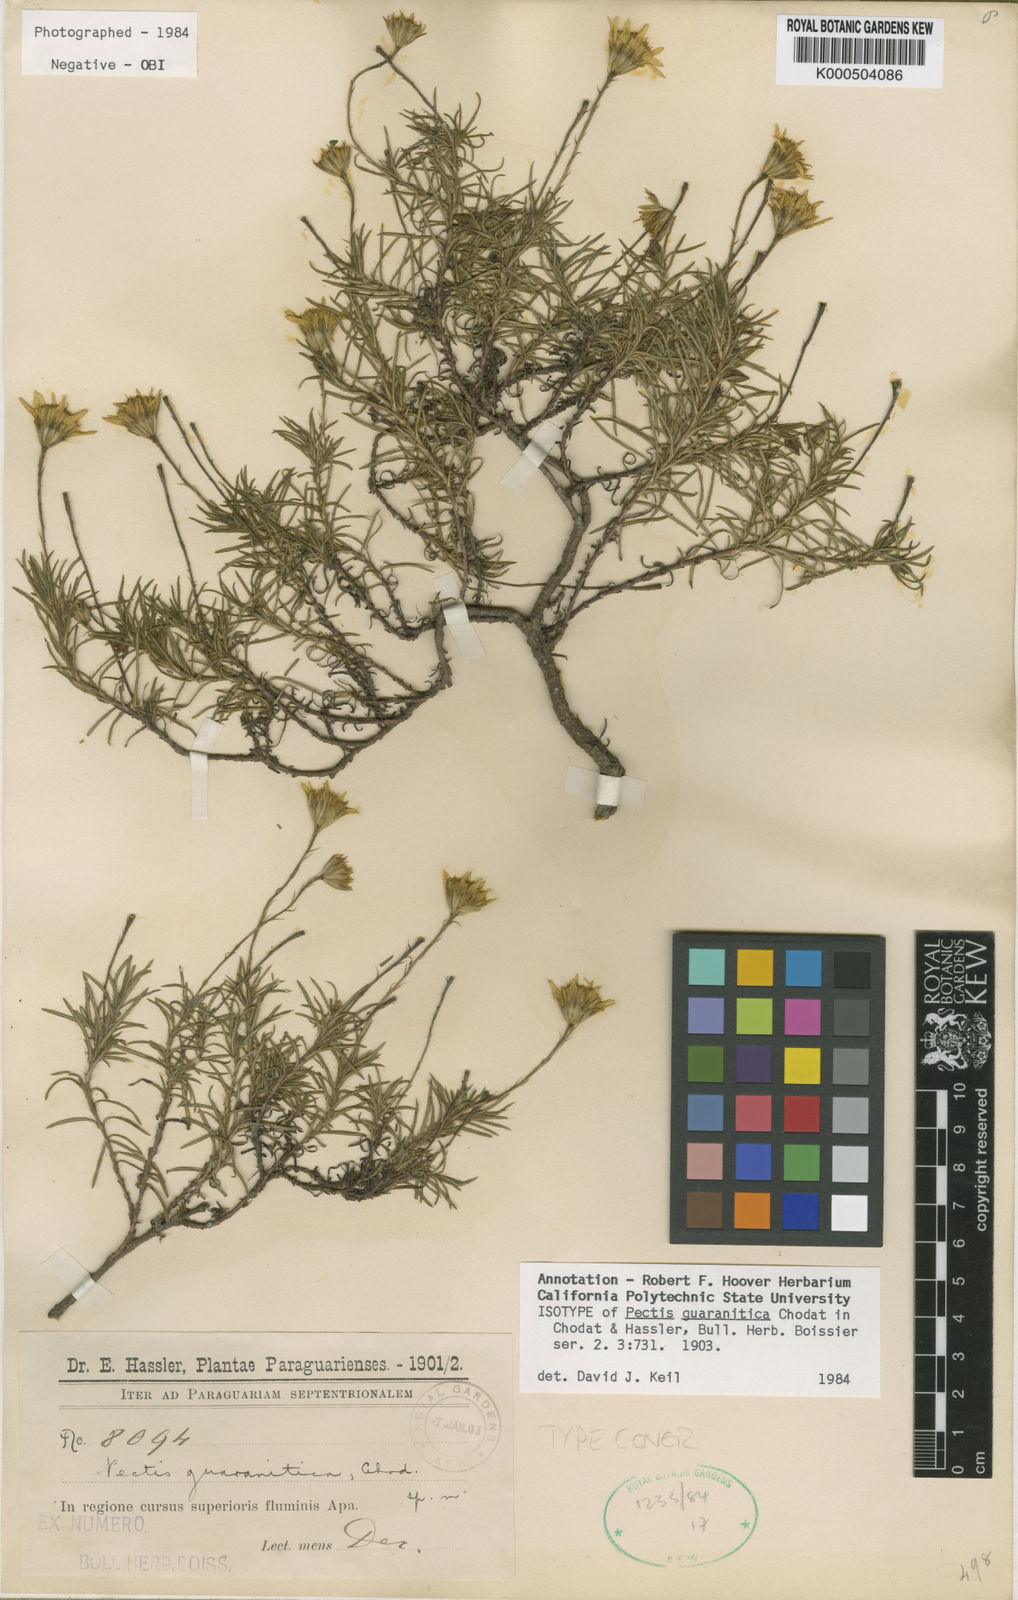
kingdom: Plantae
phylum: Tracheophyta
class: Magnoliopsida
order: Asterales
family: Asteraceae
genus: Pectis
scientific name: Pectis guaranitica
